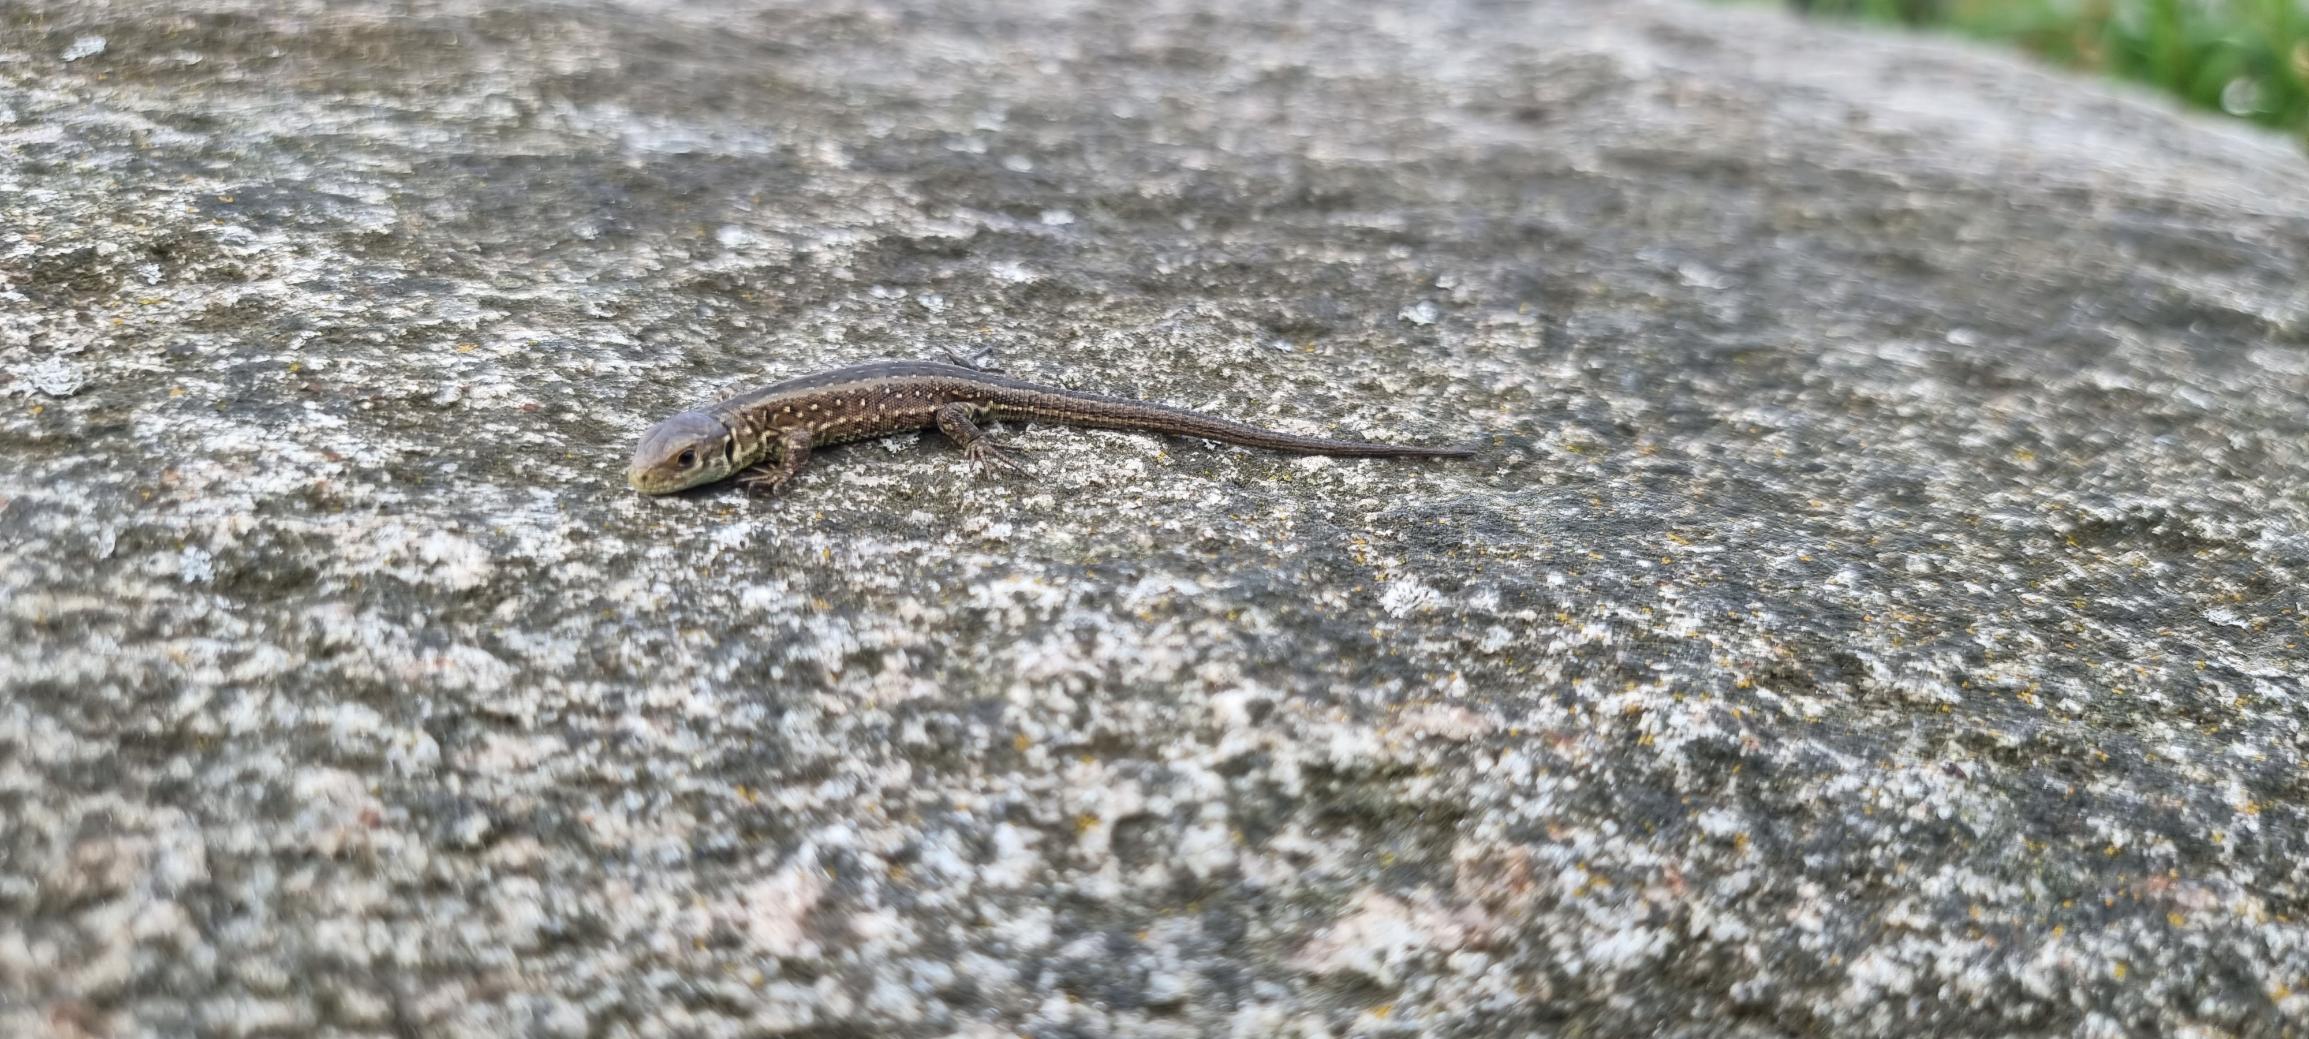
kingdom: Animalia
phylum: Chordata
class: Squamata
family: Lacertidae
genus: Lacerta
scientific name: Lacerta agilis
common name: Markfirben
